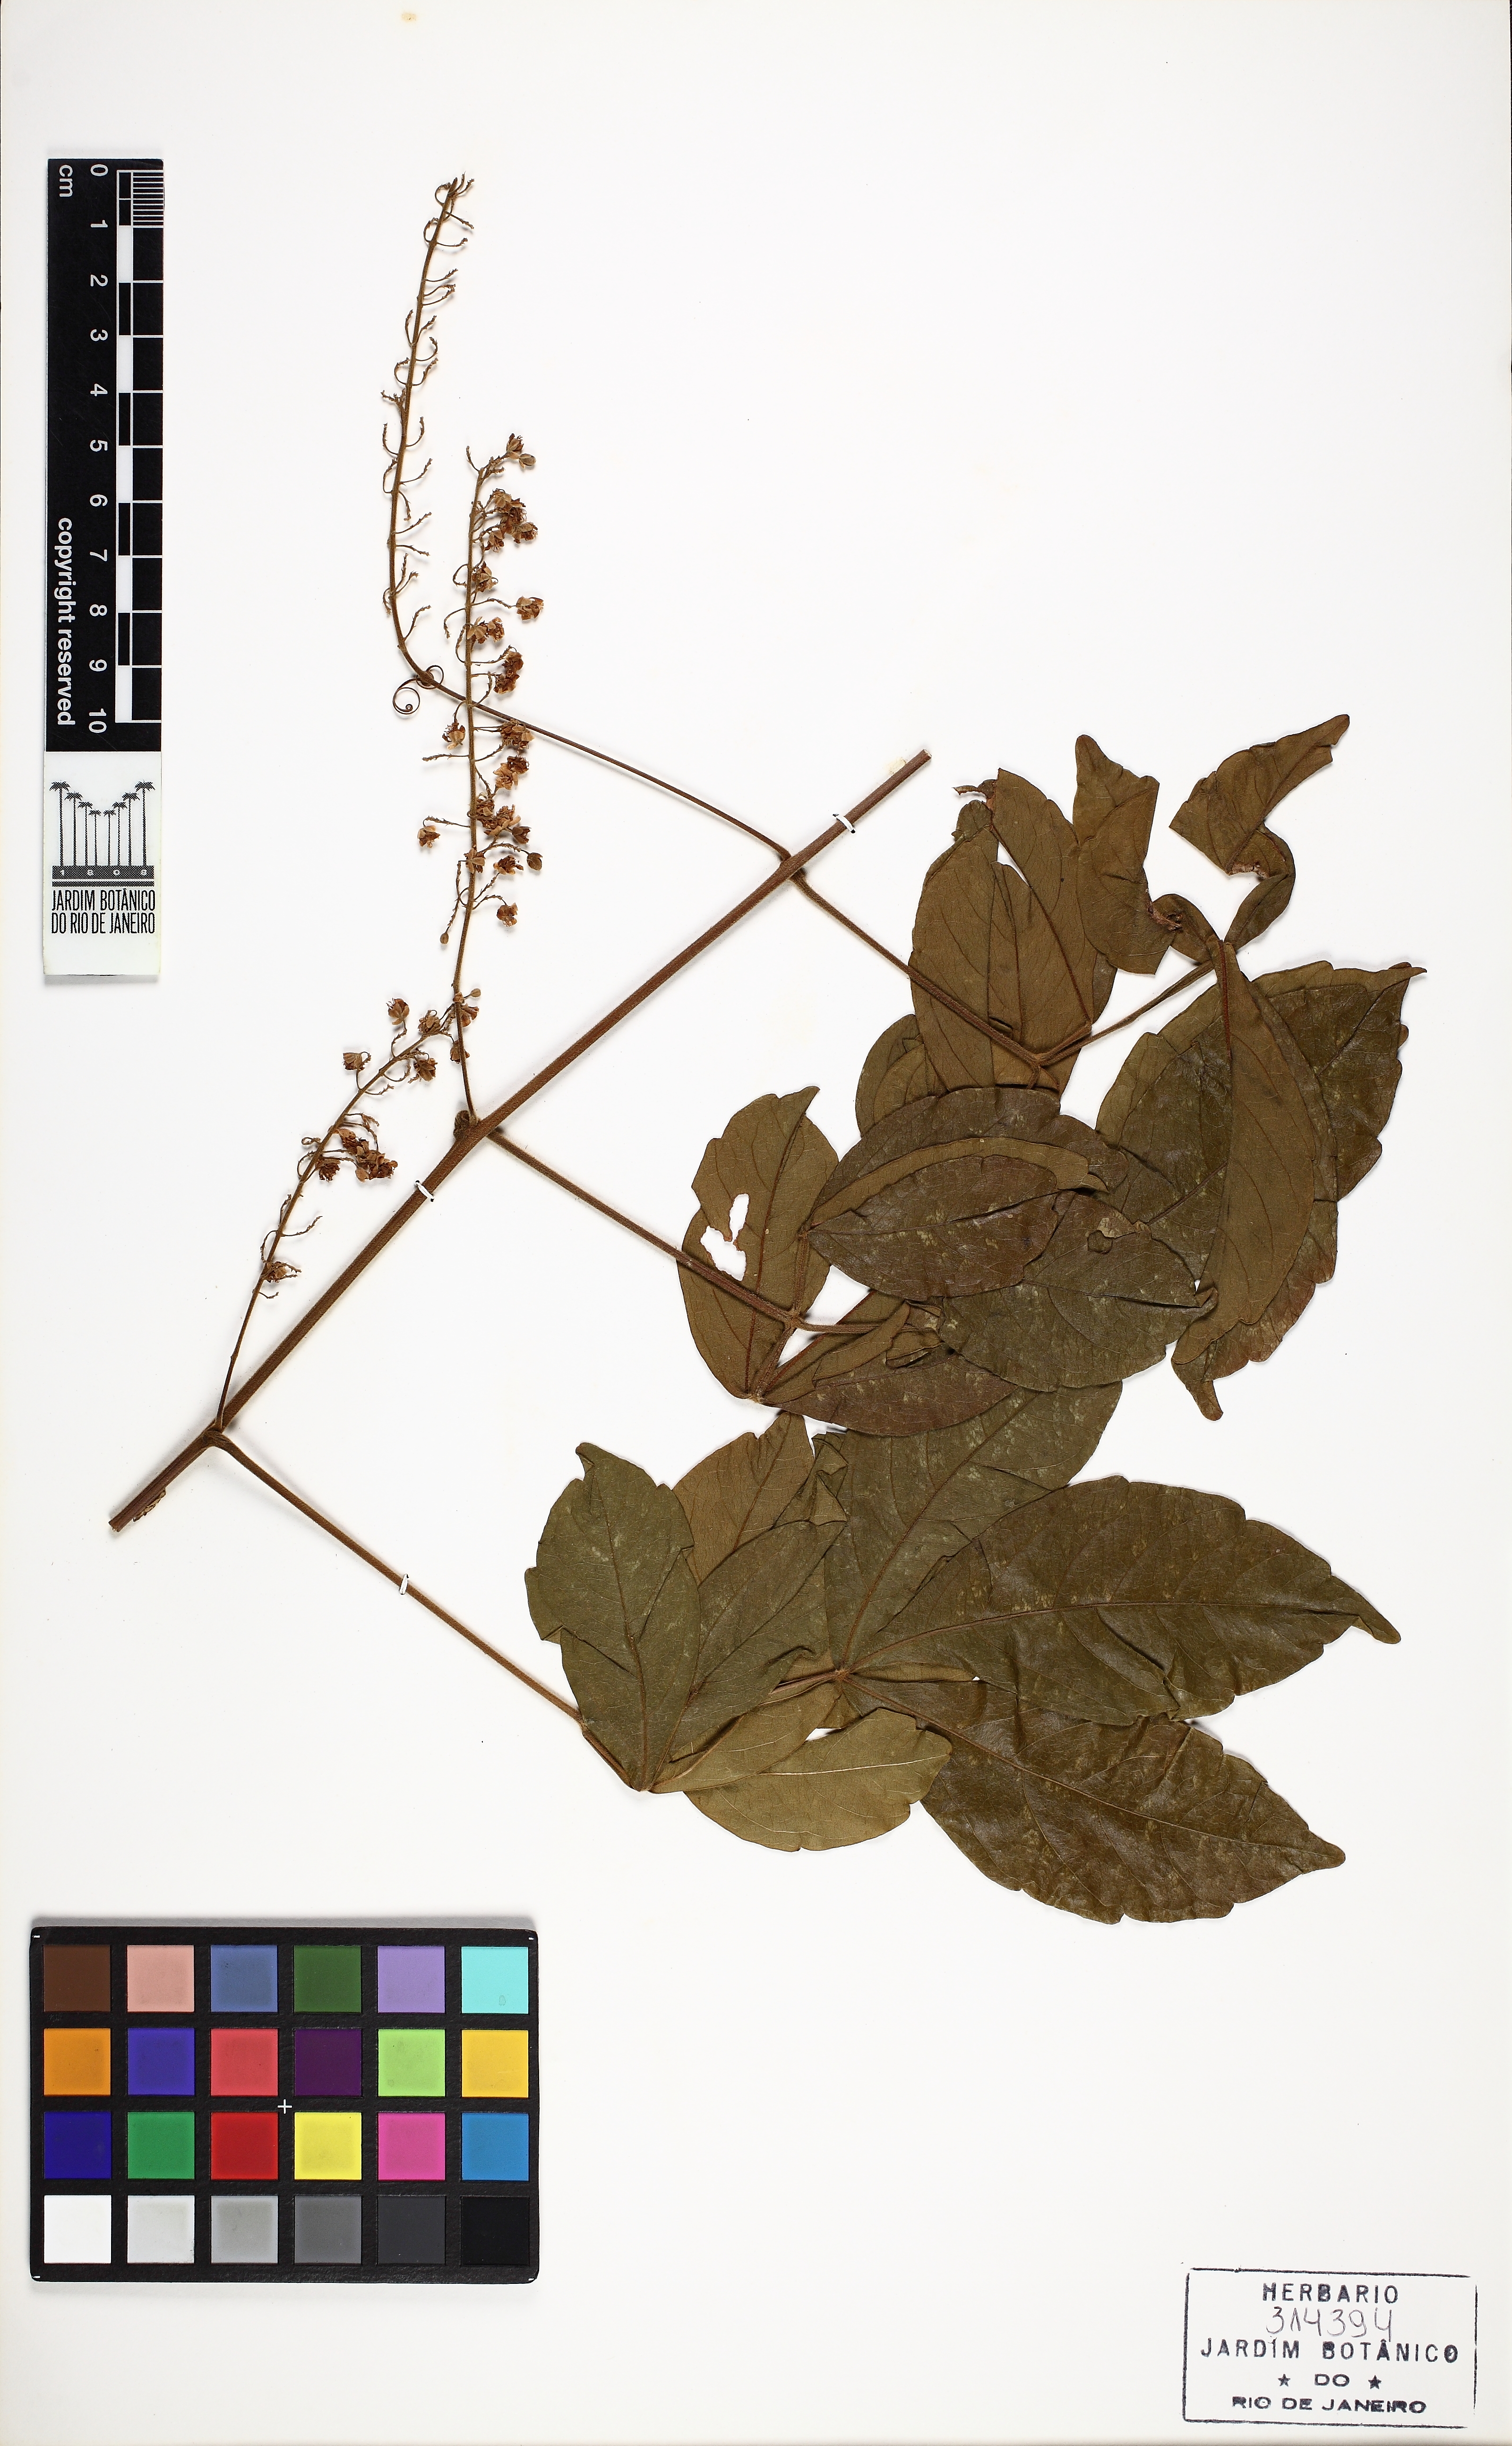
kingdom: Plantae
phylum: Tracheophyta
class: Magnoliopsida
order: Sapindales
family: Sapindaceae
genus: Serjania
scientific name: Serjania lethalis
